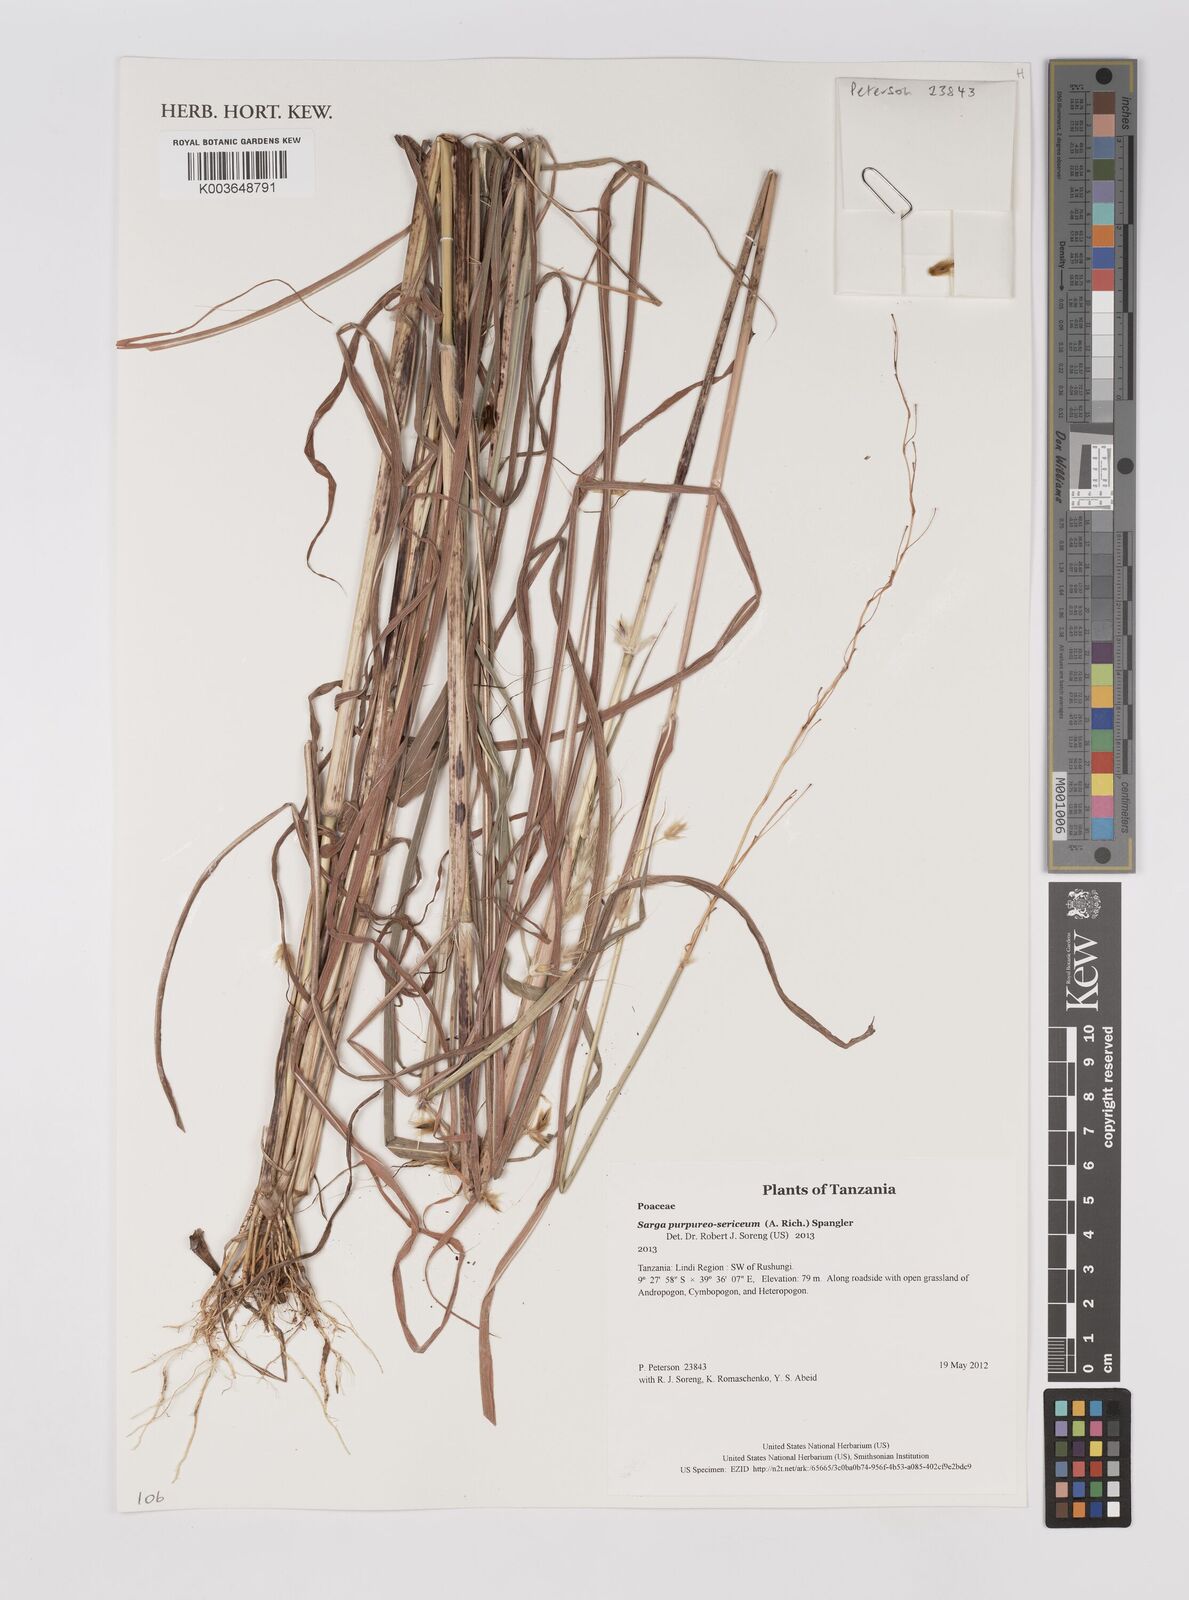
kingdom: Plantae
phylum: Tracheophyta
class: Liliopsida
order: Poales
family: Poaceae
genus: Sarga
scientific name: Sarga purpureosericea
